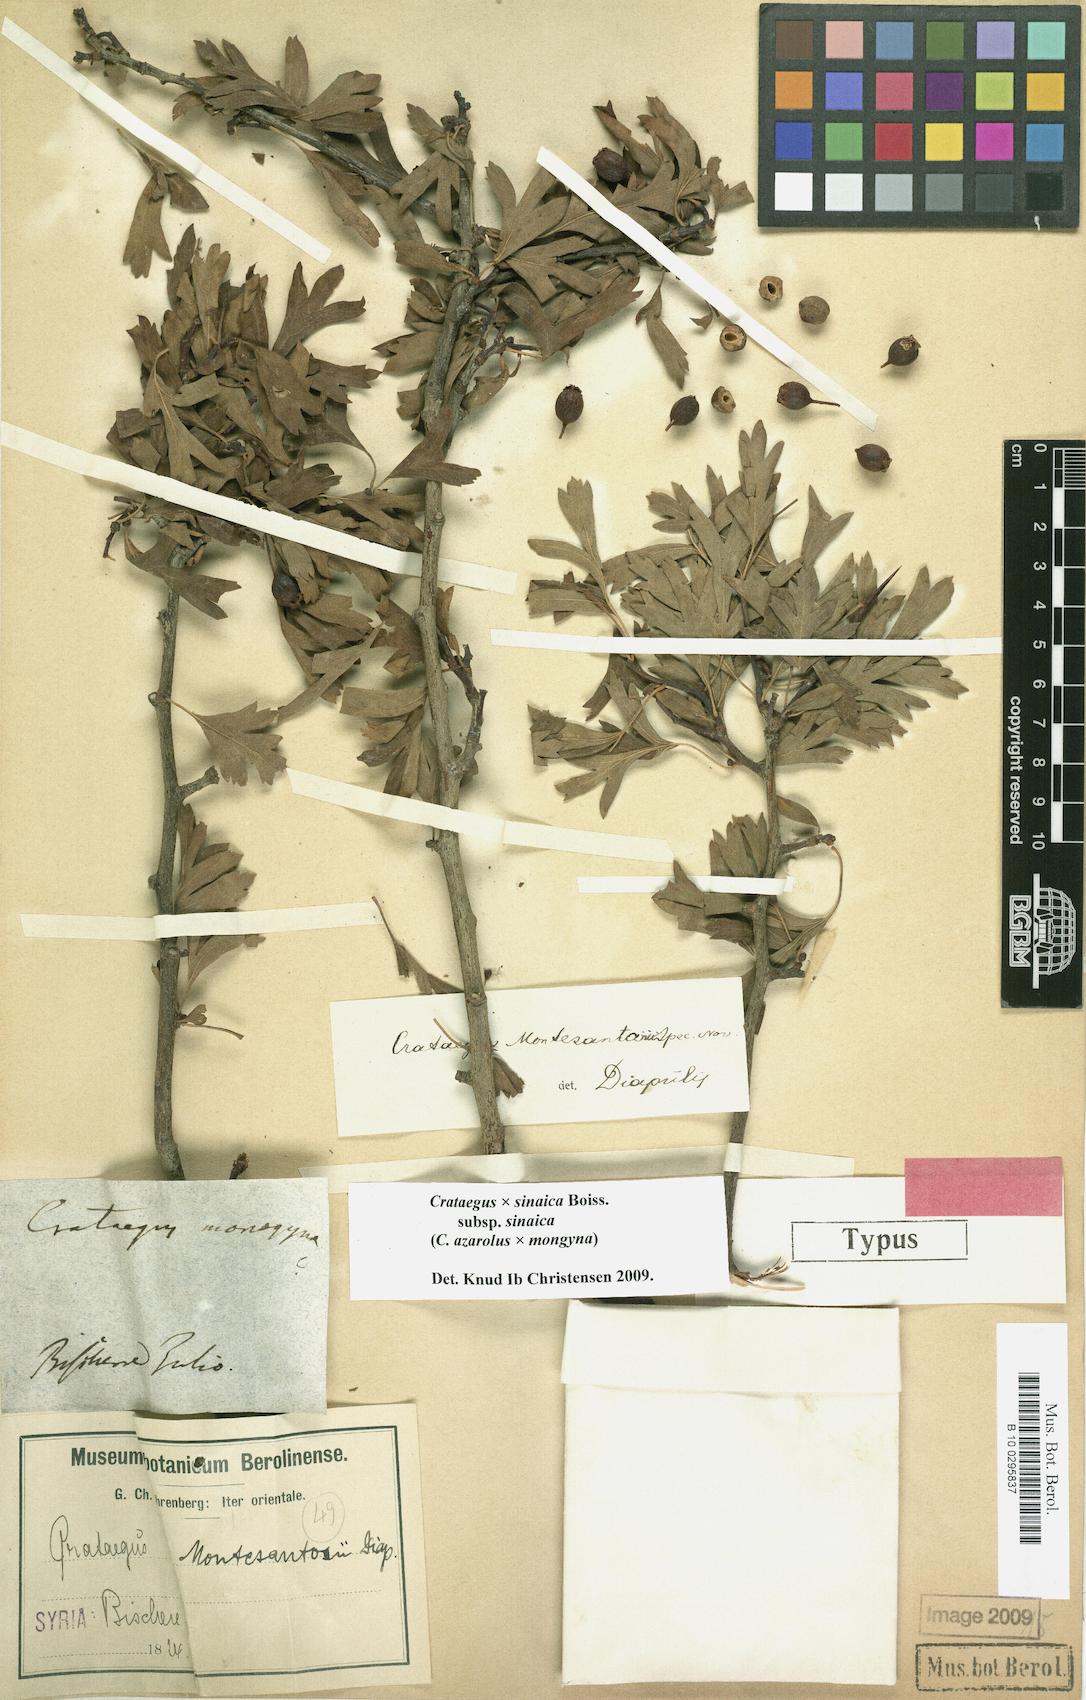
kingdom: Plantae
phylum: Tracheophyta
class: Magnoliopsida
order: Rosales
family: Rosaceae
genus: Crataegus
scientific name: Crataegus sinaica
